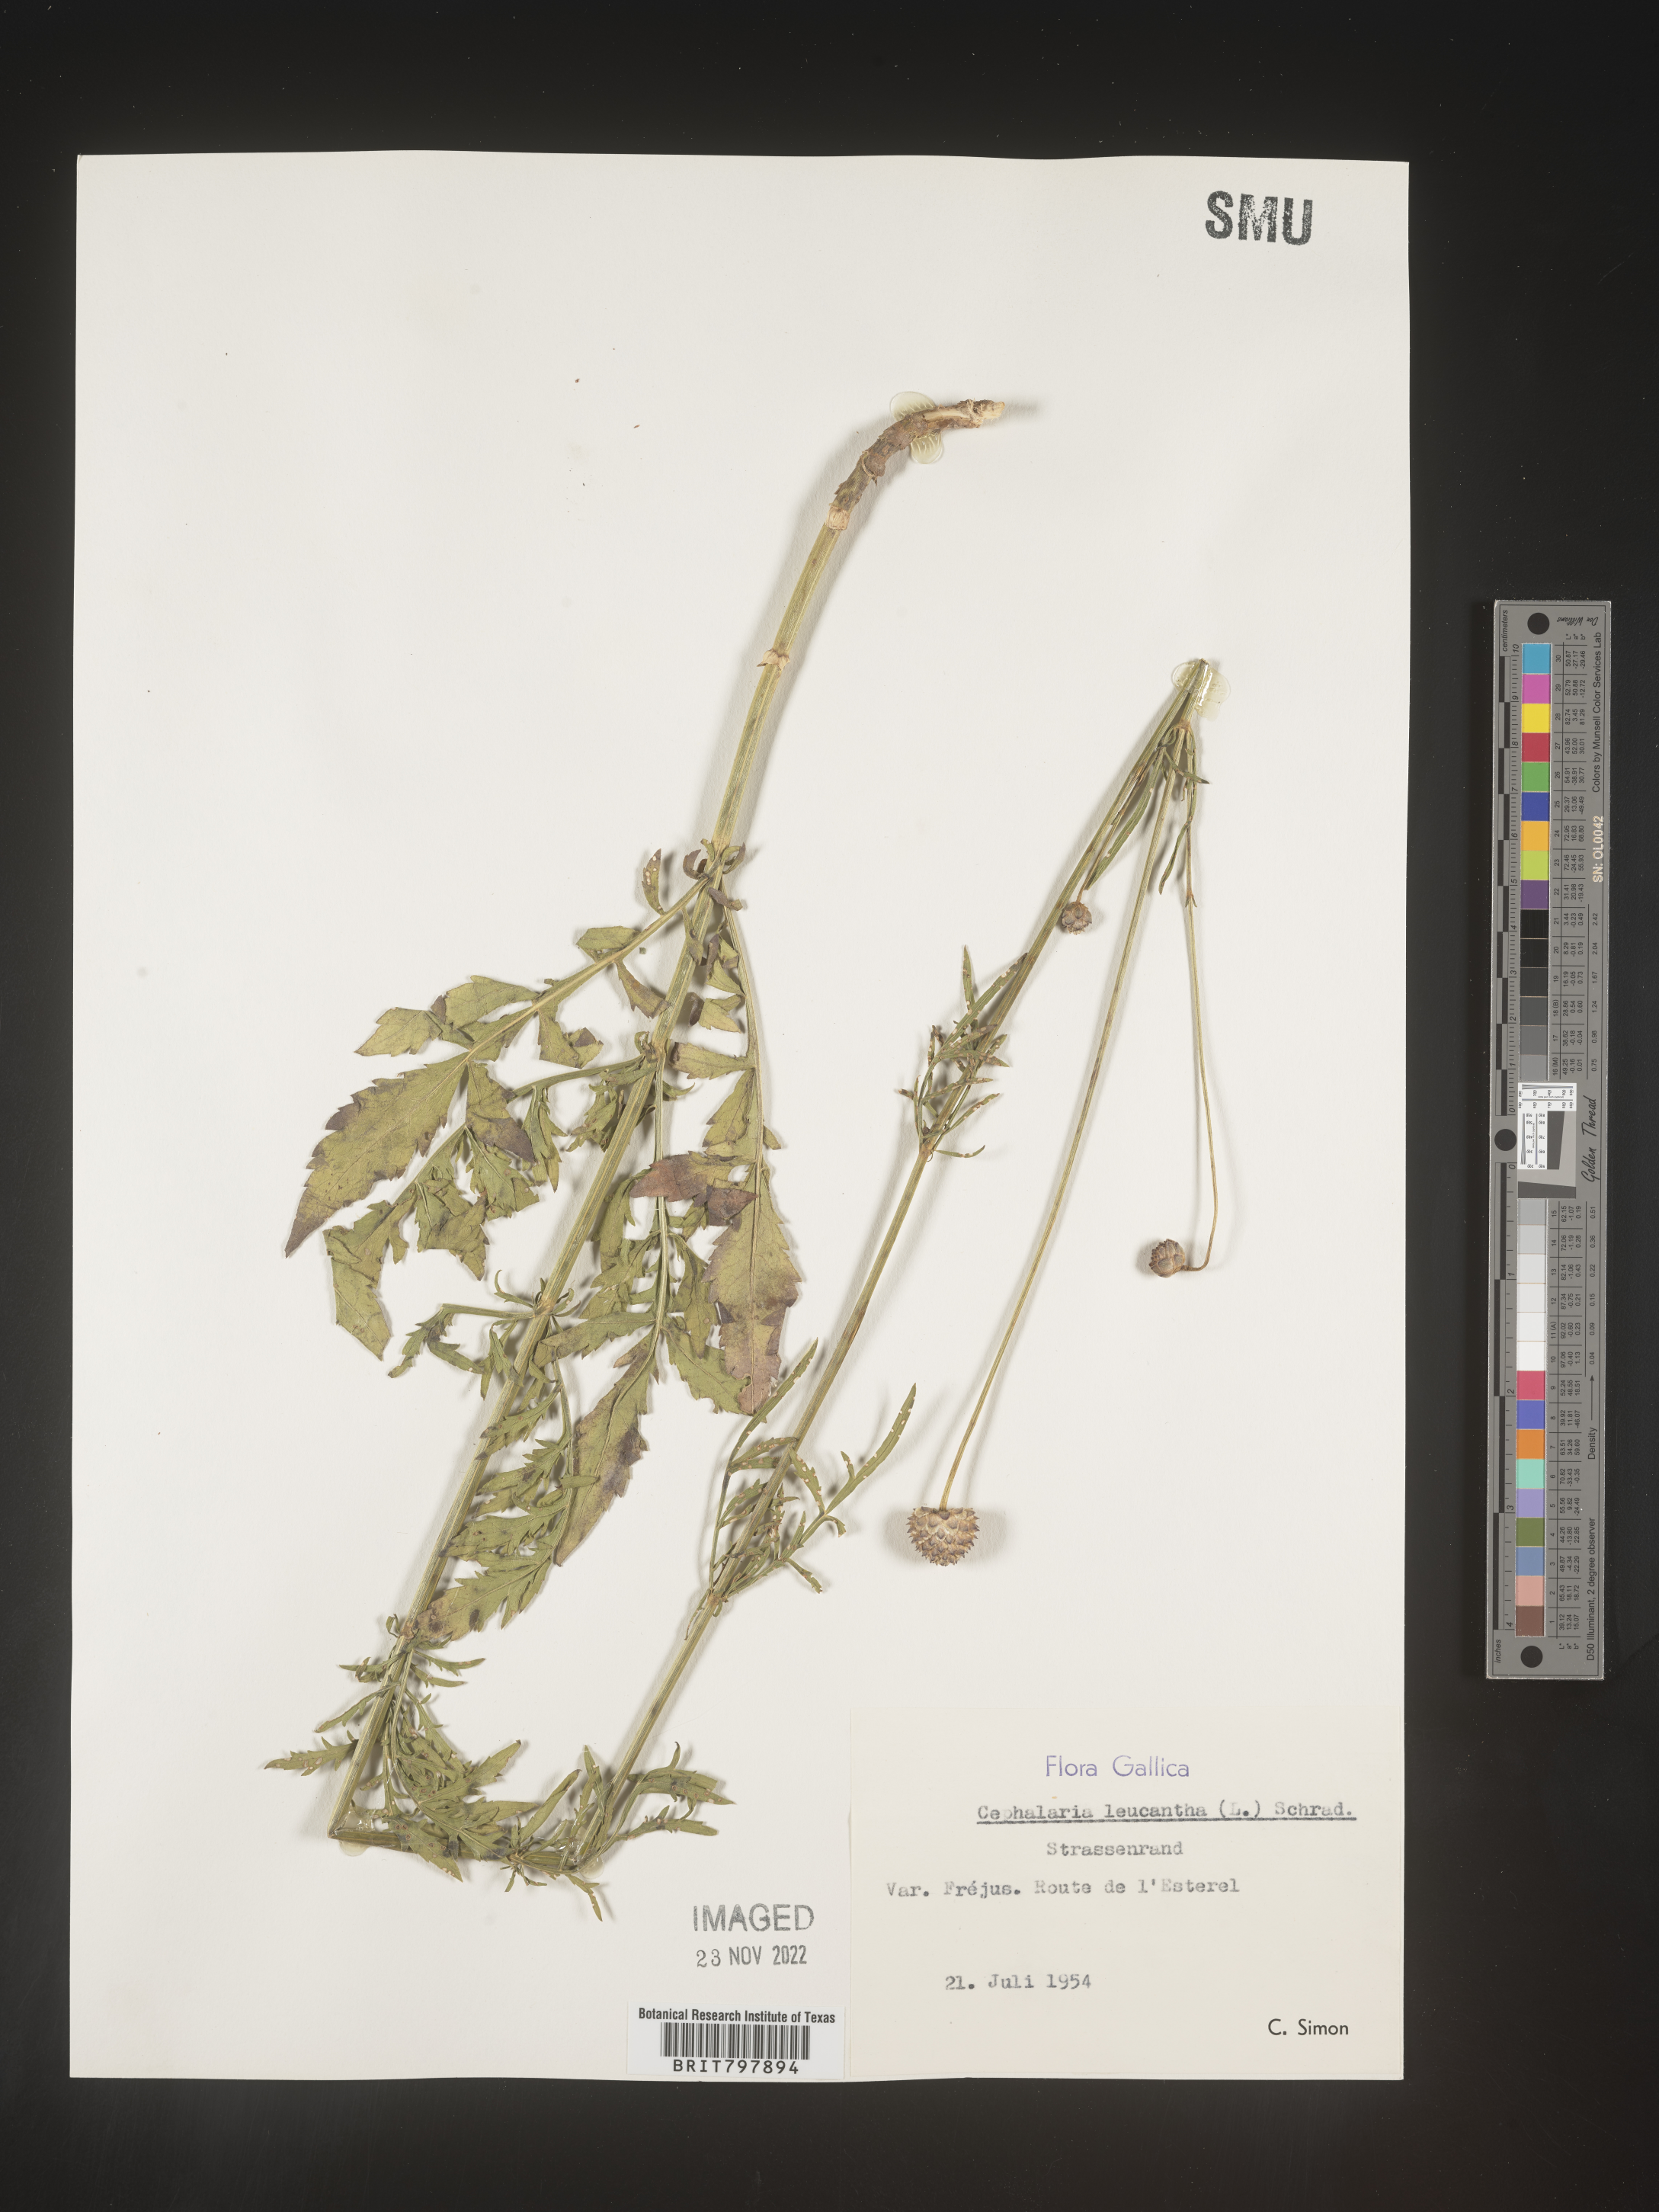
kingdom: Plantae
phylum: Tracheophyta
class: Magnoliopsida
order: Dipsacales
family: Caprifoliaceae
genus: Cephalaria
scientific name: Cephalaria
